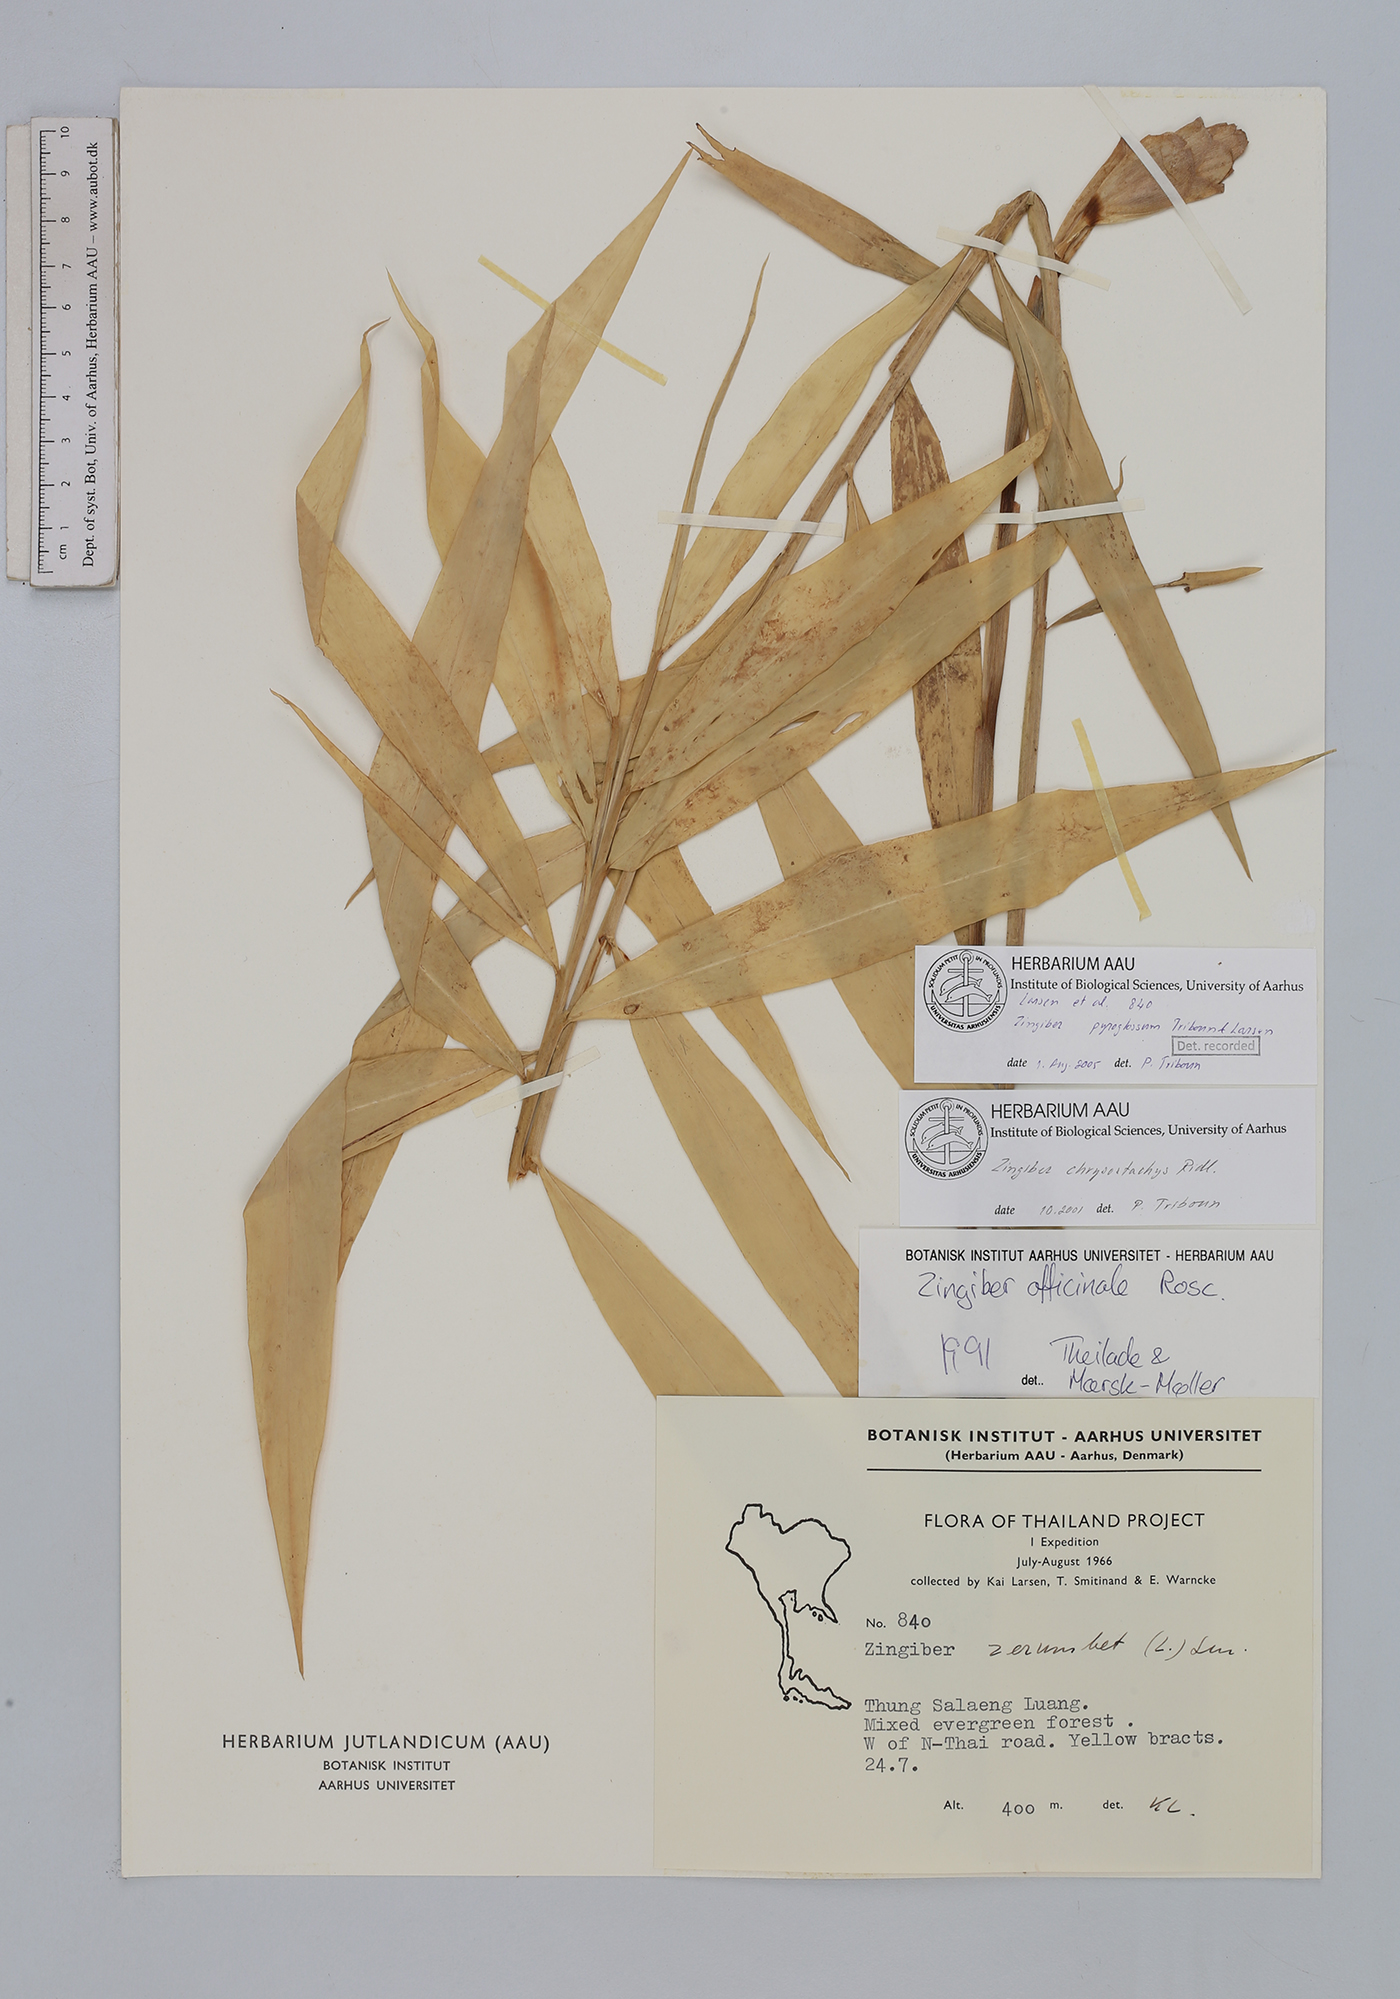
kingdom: Plantae
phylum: Tracheophyta
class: Liliopsida
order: Zingiberales
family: Zingiberaceae
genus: Zingiber
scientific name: Zingiber zerumbet
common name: Bitter ginger
